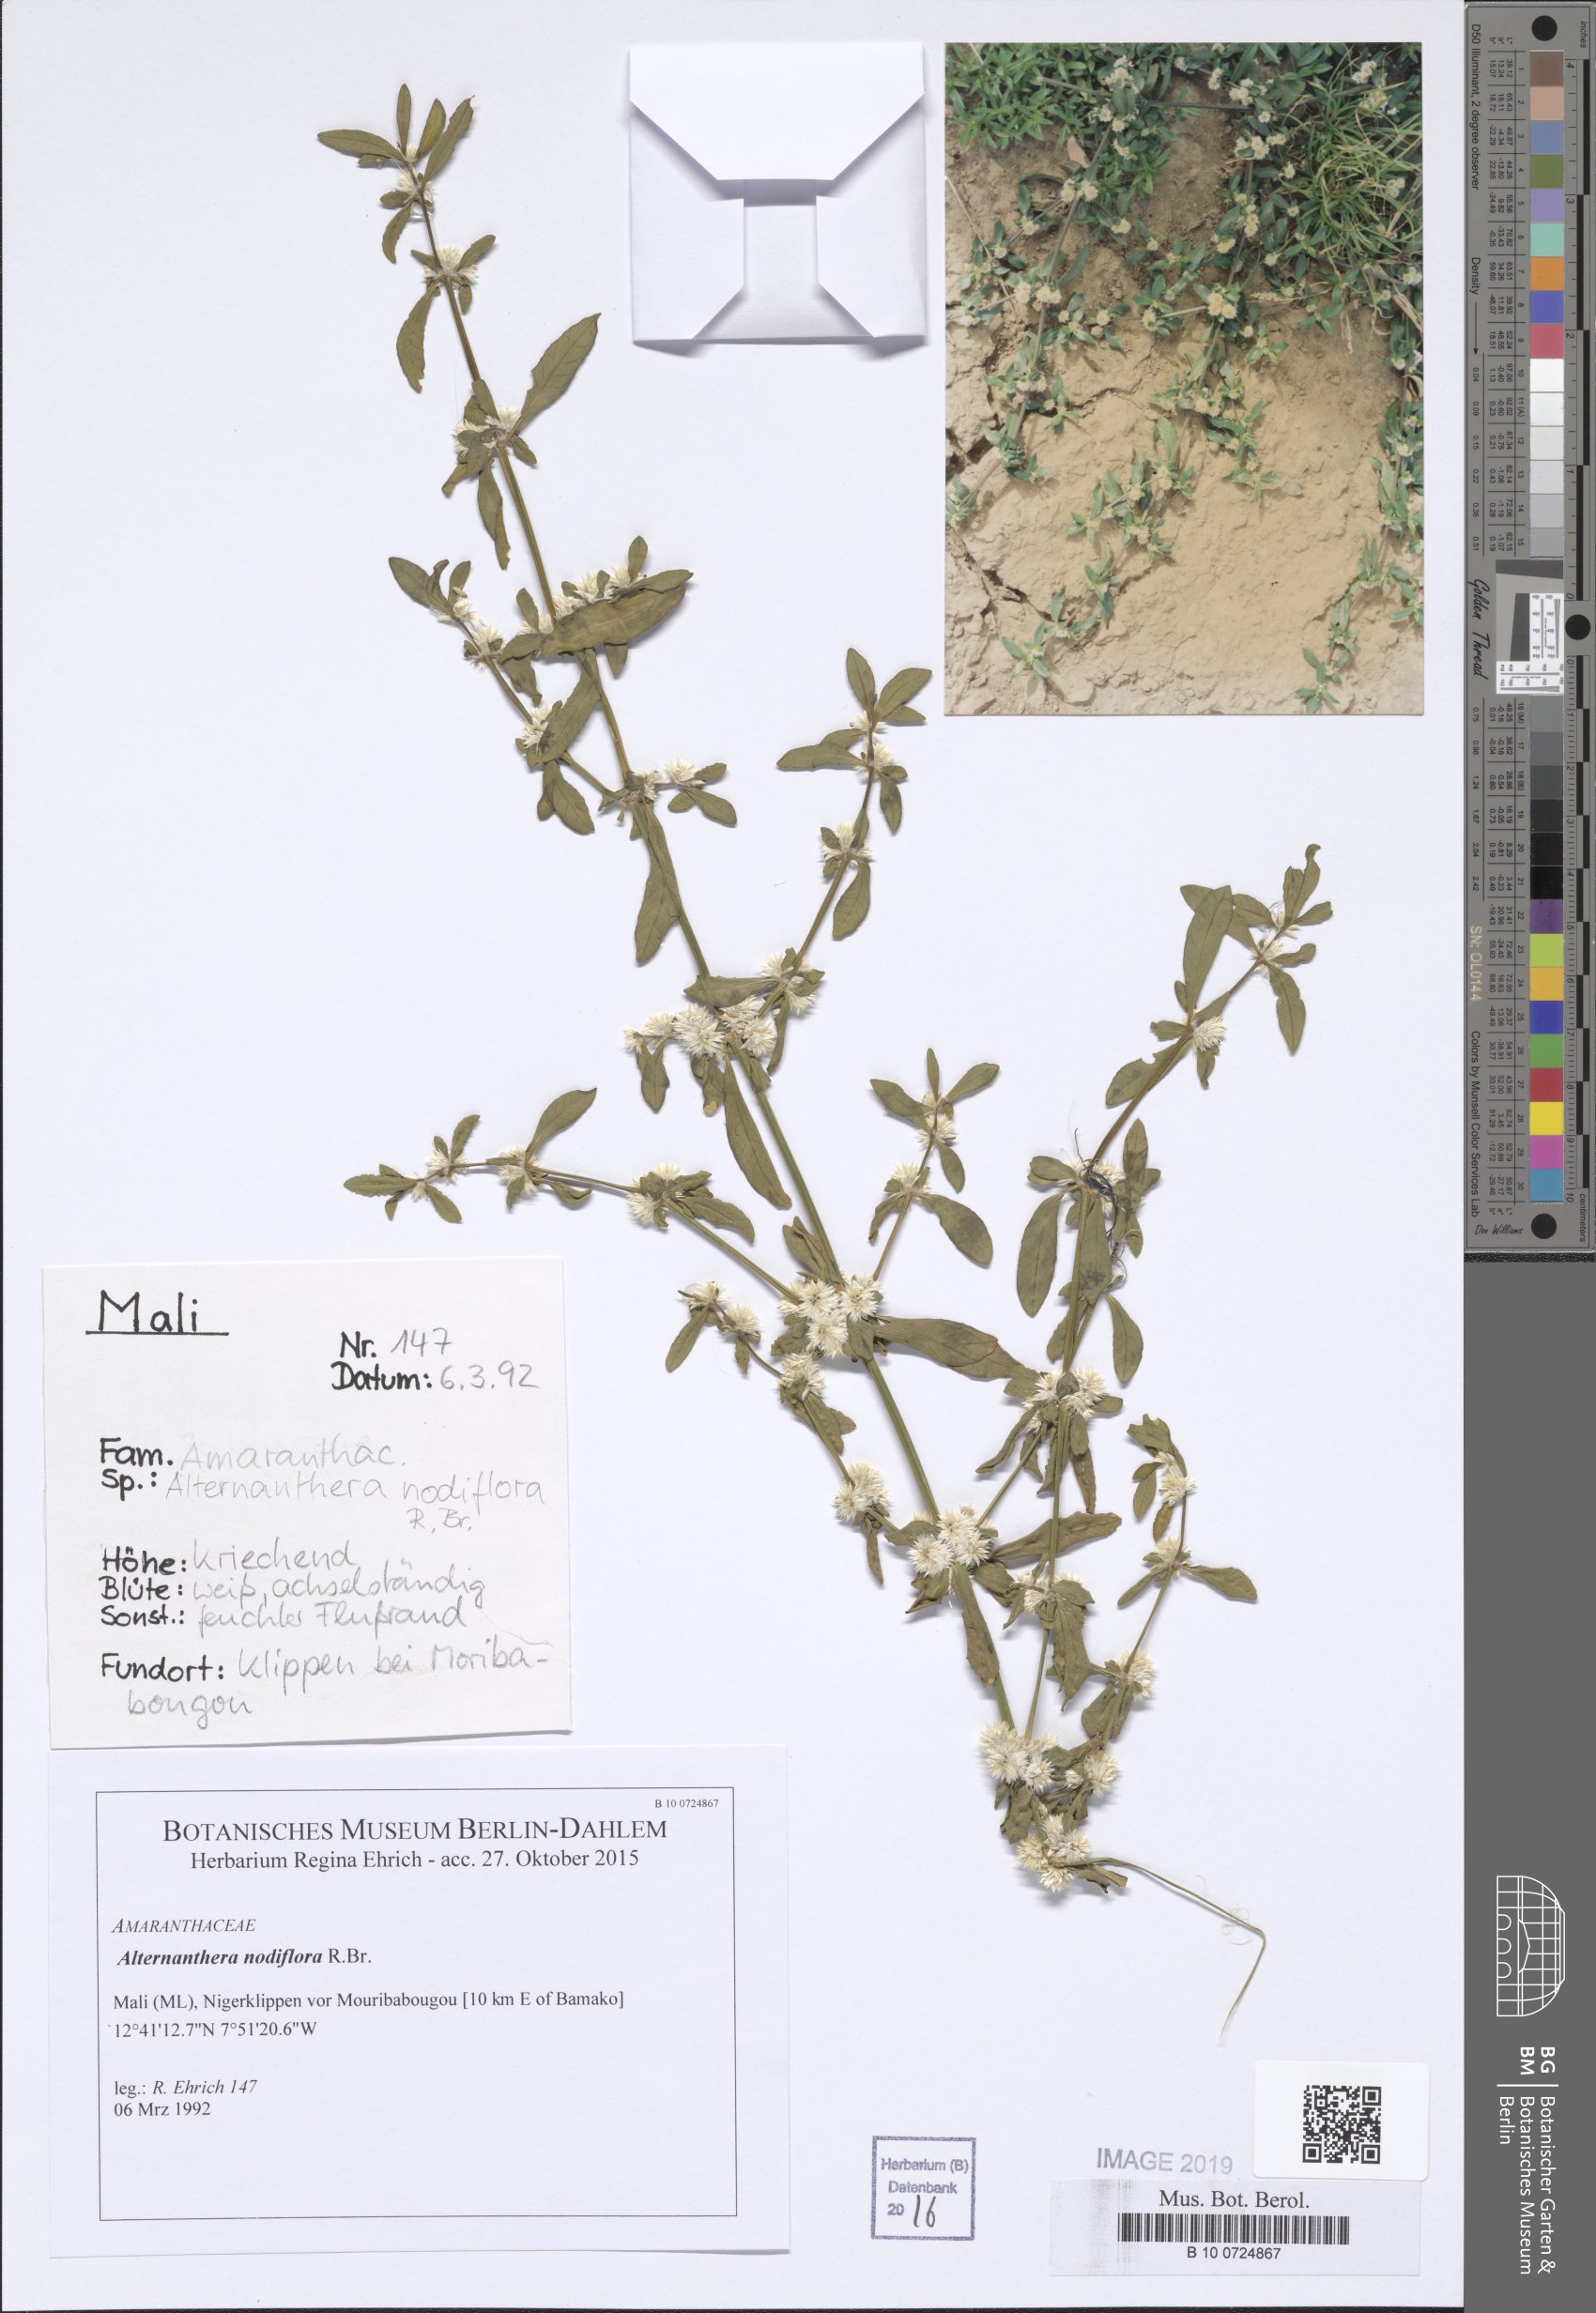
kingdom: Plantae
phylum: Tracheophyta
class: Magnoliopsida
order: Caryophyllales
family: Amaranthaceae
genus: Alternanthera
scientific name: Alternanthera sessilis
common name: Sessile joyweed
